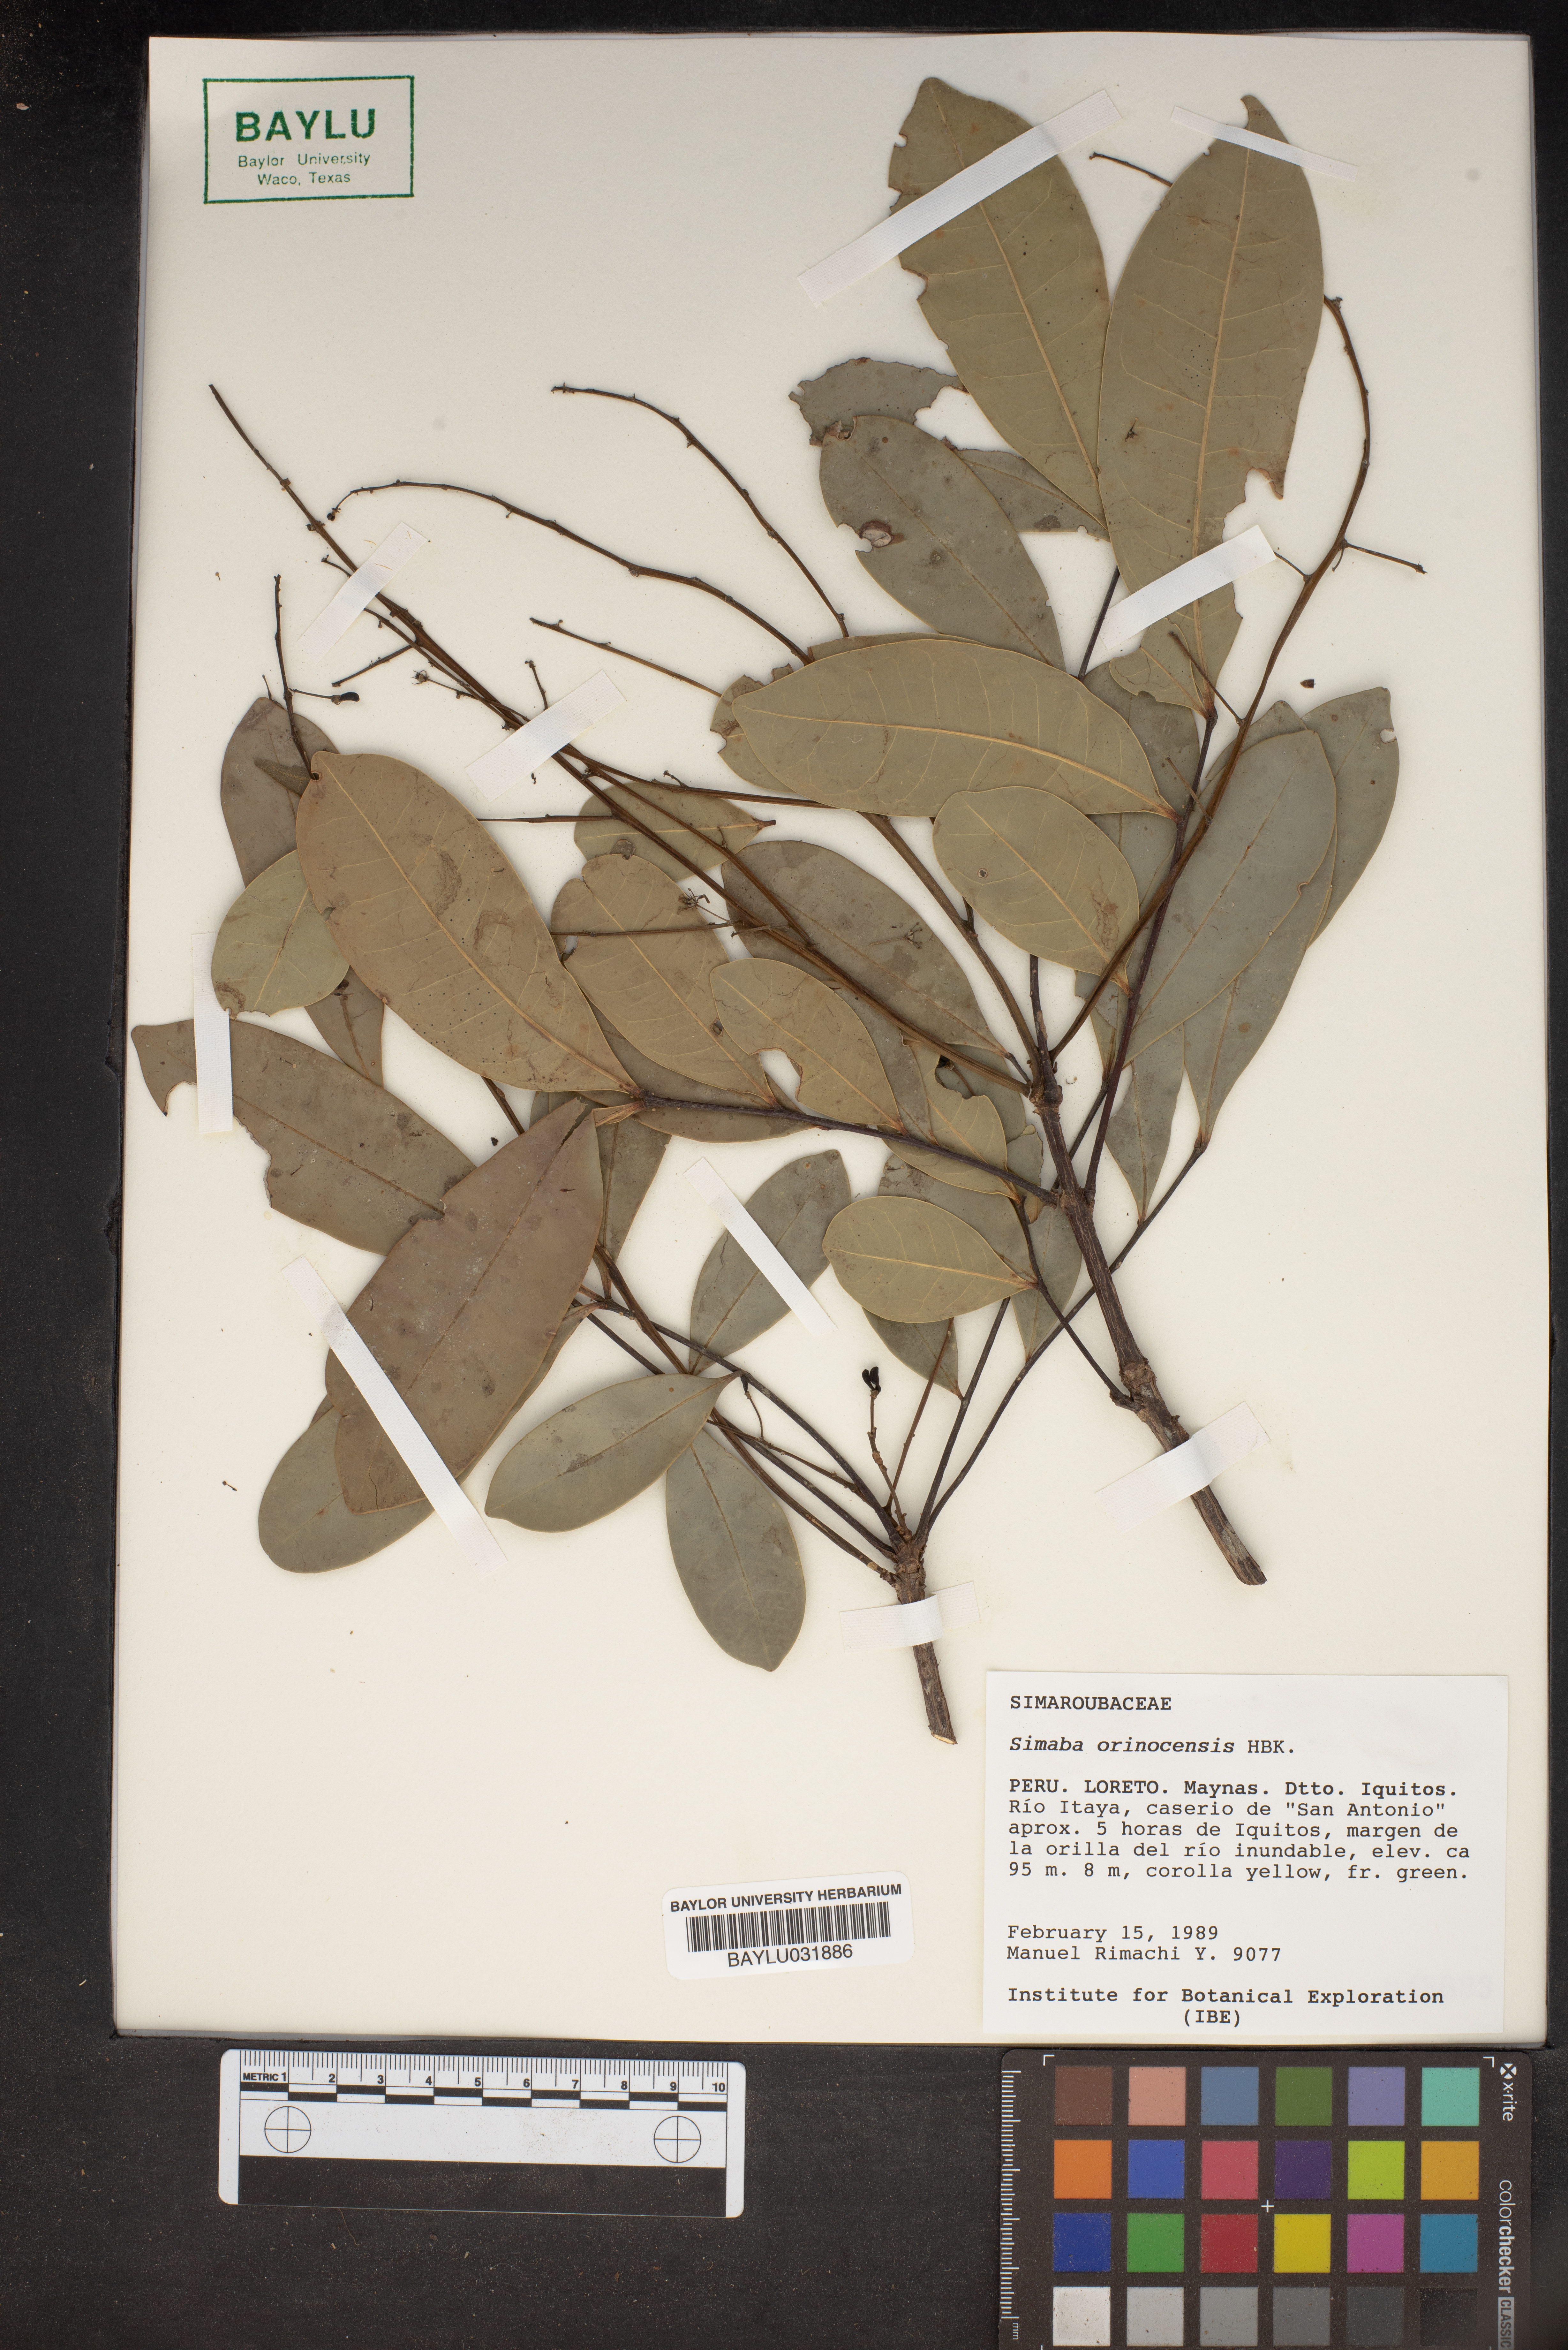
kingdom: Plantae
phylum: Tracheophyta
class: Magnoliopsida
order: Sapindales
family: Simaroubaceae
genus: Simaba
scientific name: Simaba orinocensis
